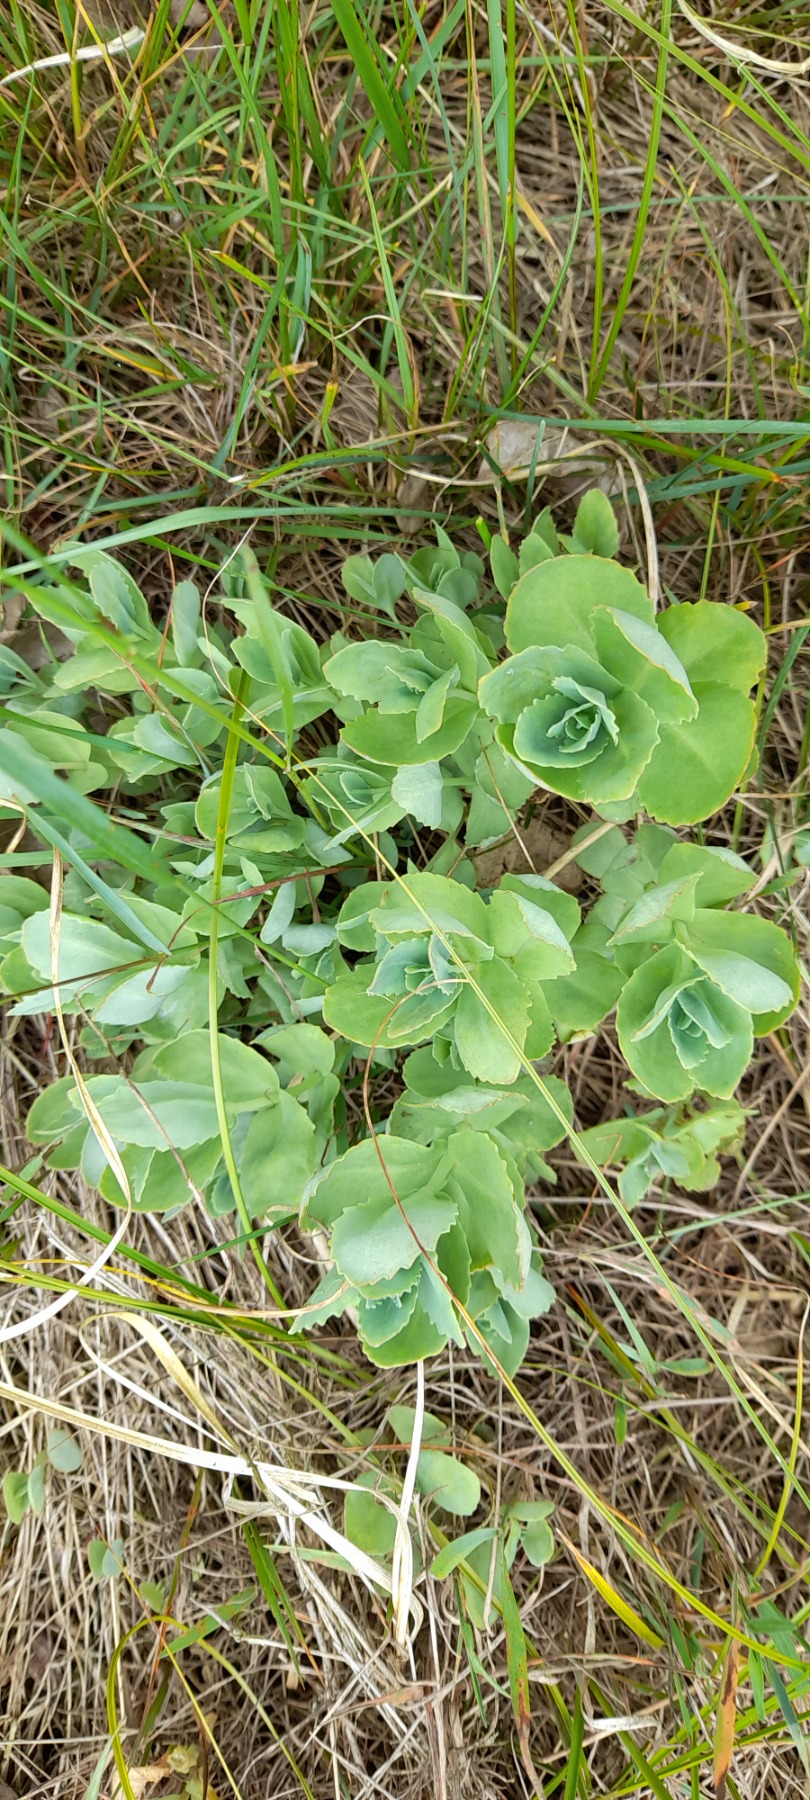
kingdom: Plantae
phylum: Tracheophyta
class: Magnoliopsida
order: Saxifragales
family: Crassulaceae
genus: Hylotelephium
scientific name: Hylotelephium maximum
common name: Almindelig sankthansurt
